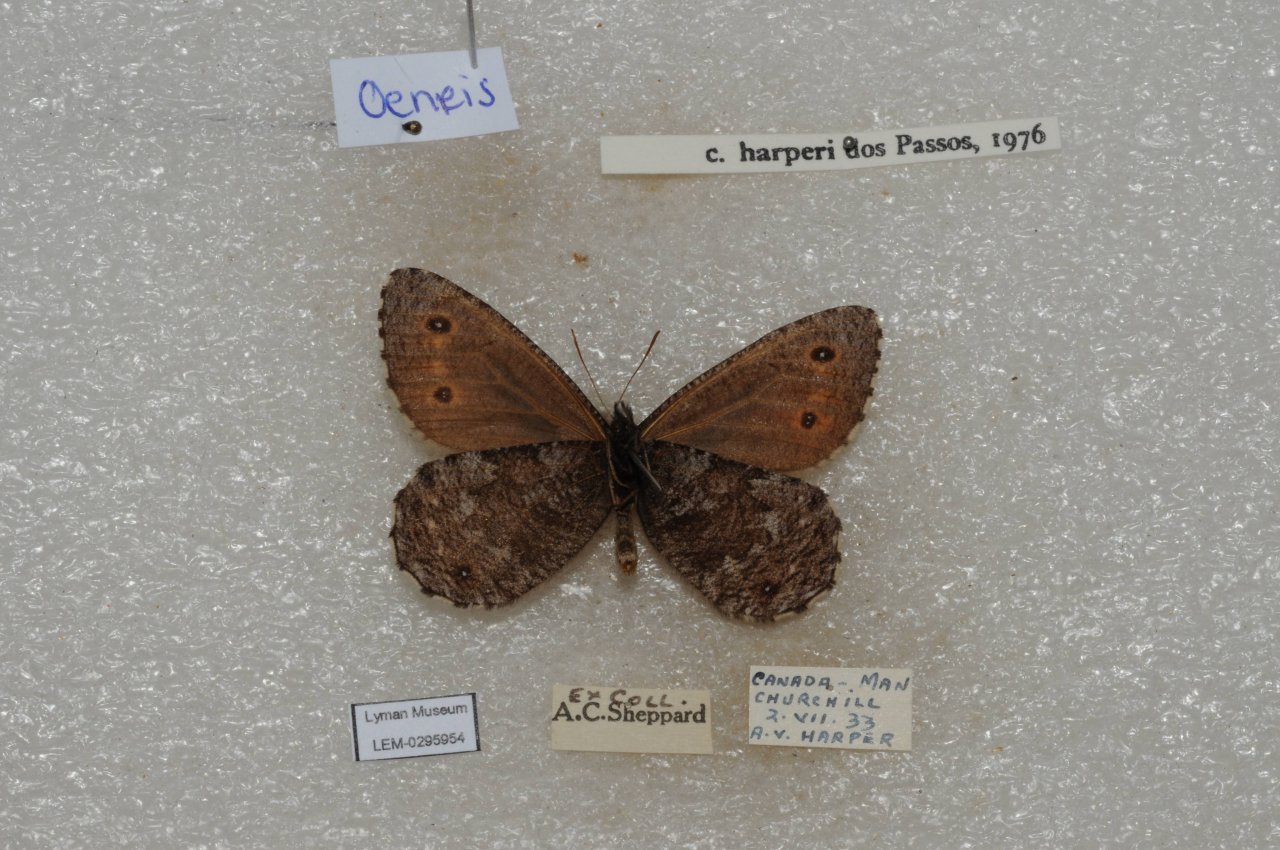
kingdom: Animalia
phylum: Arthropoda
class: Insecta
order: Lepidoptera
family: Nymphalidae
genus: Oeneis
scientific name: Oeneis jutta
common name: Jutta Arctic
